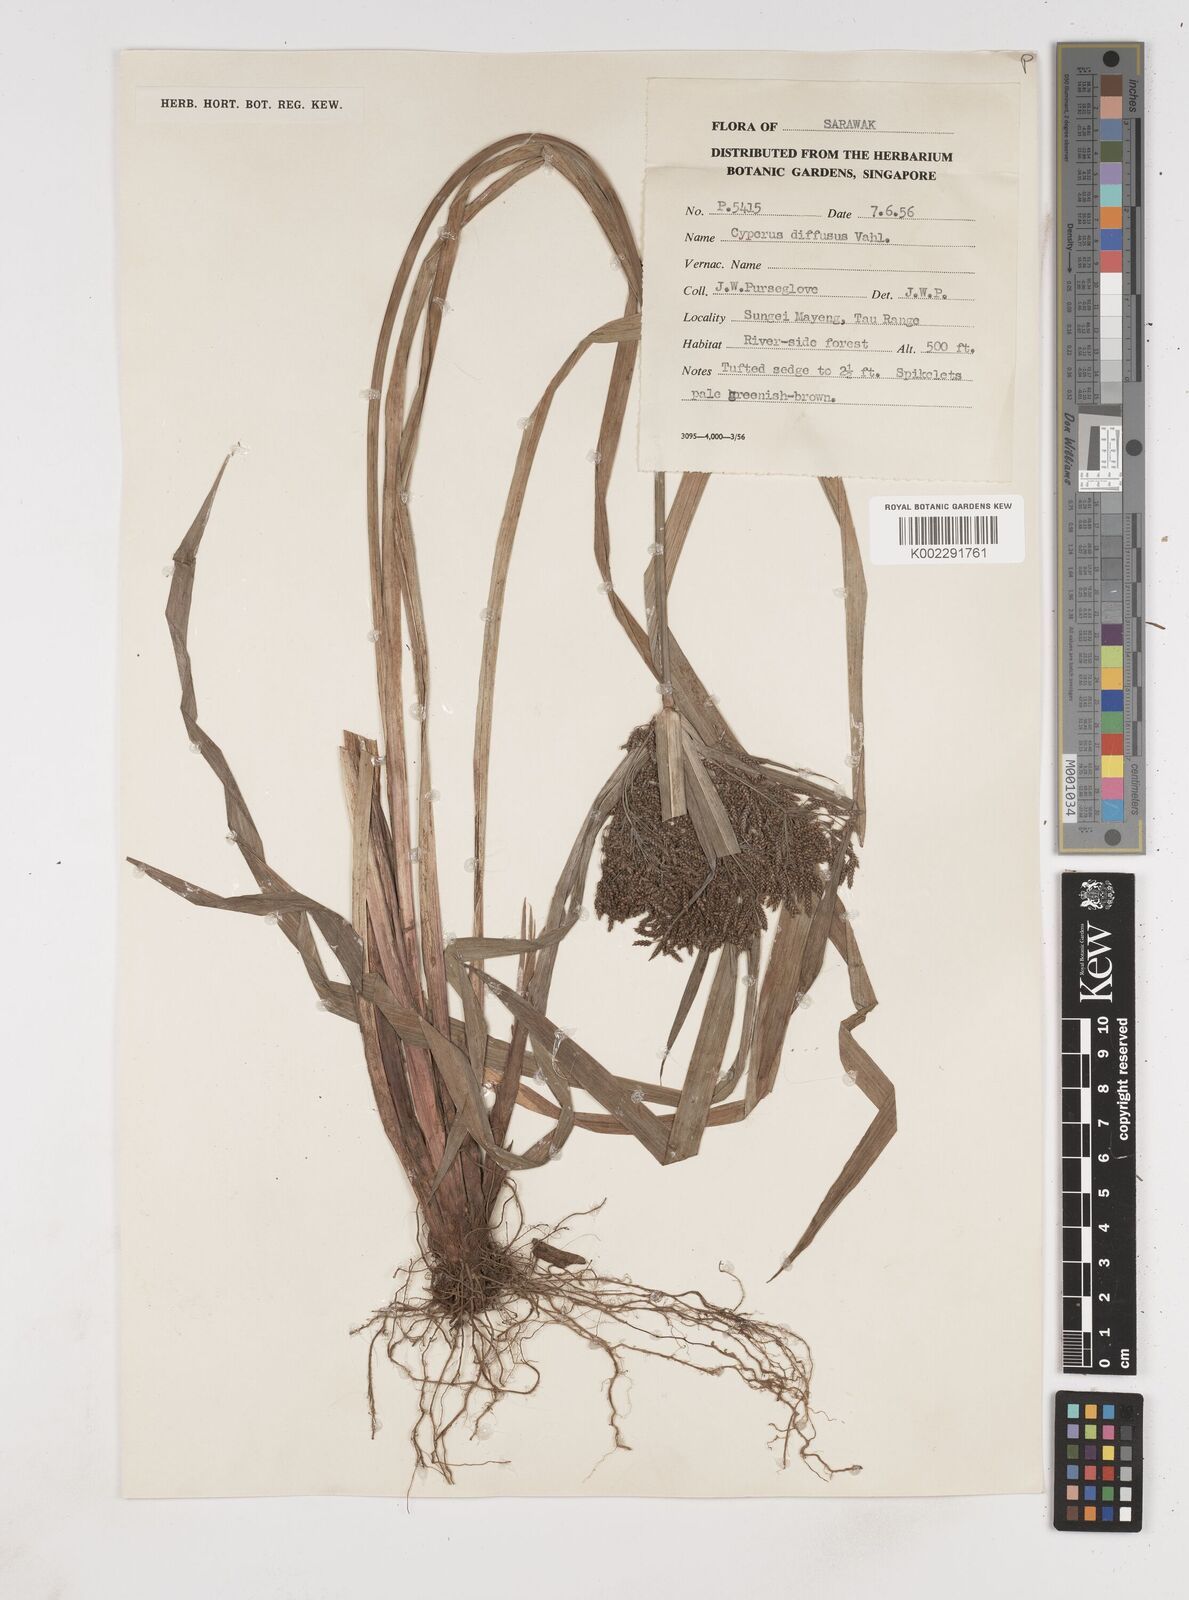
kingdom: Plantae
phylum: Tracheophyta
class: Liliopsida
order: Poales
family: Cyperaceae
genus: Cyperus
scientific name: Cyperus diffusus
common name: Dwarf umbrella grass
